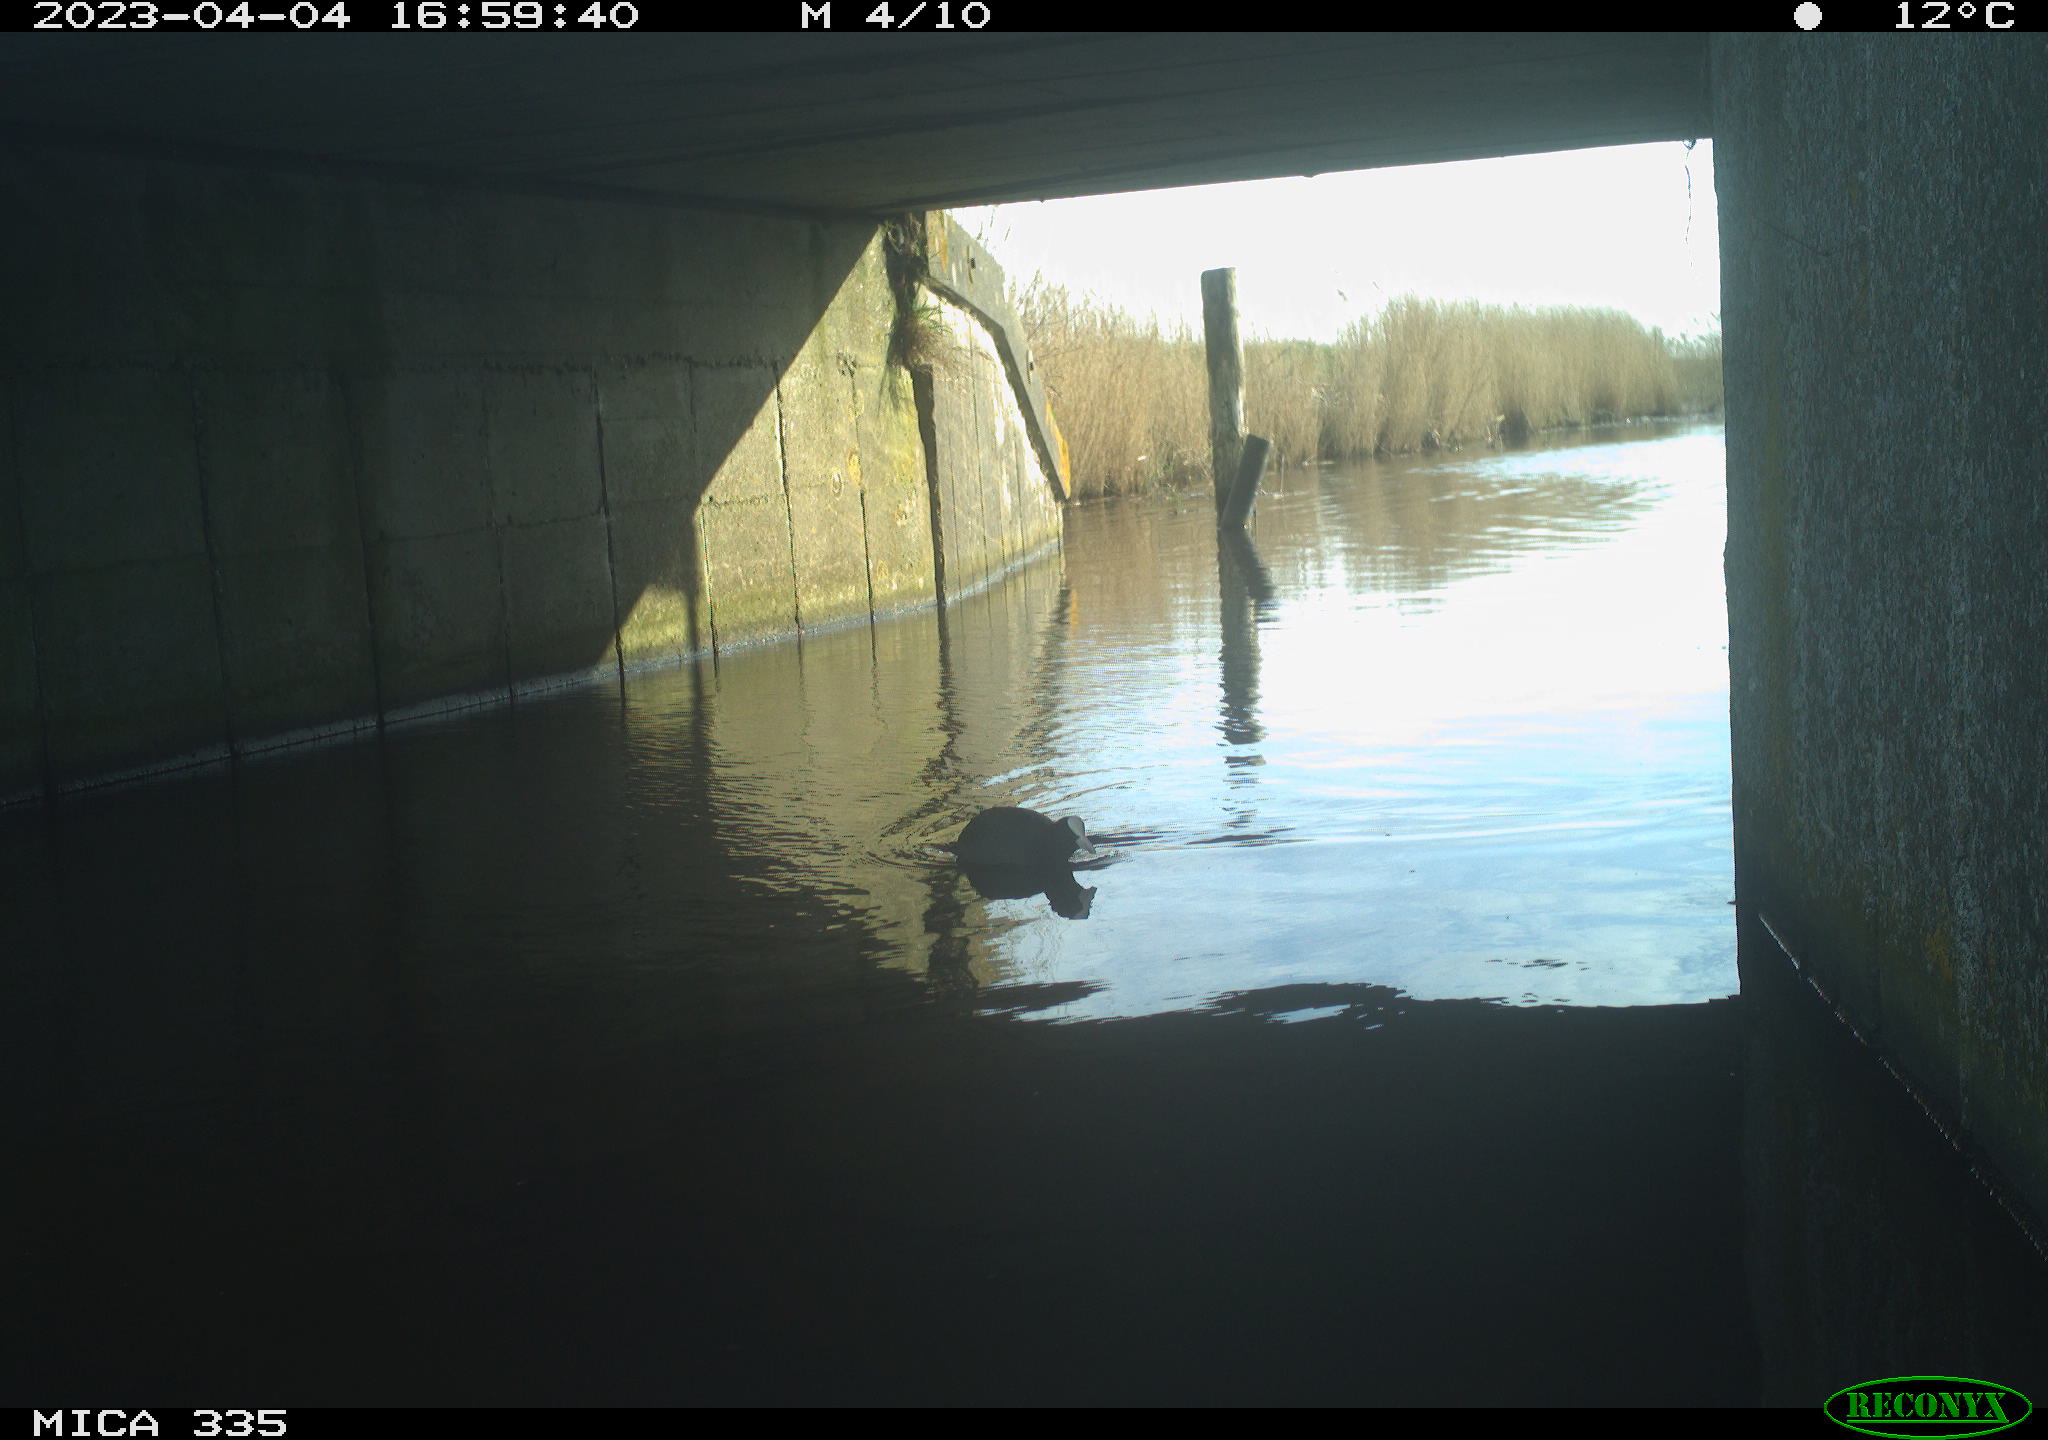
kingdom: Animalia
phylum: Chordata
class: Aves
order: Anseriformes
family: Anatidae
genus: Anas
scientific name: Anas
